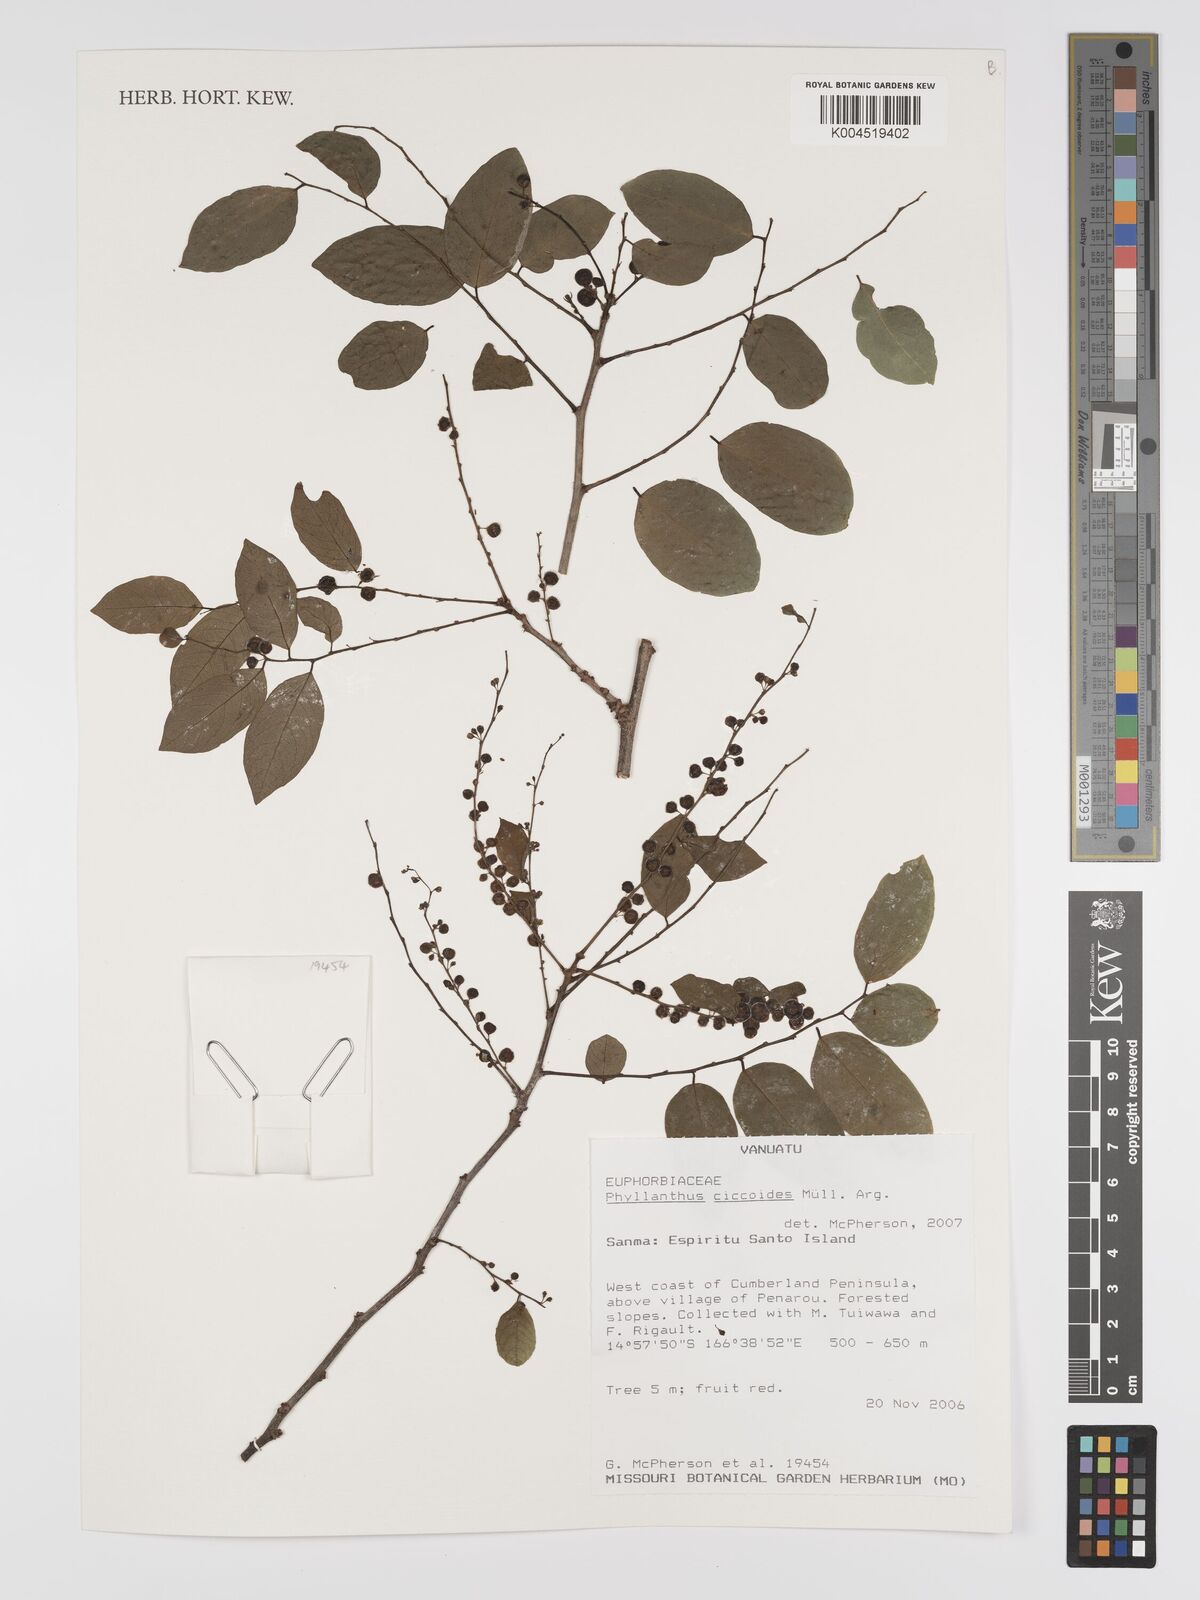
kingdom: Plantae
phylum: Tracheophyta
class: Magnoliopsida
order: Malpighiales
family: Phyllanthaceae
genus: Phyllanthus
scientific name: Phyllanthus ciccoides
